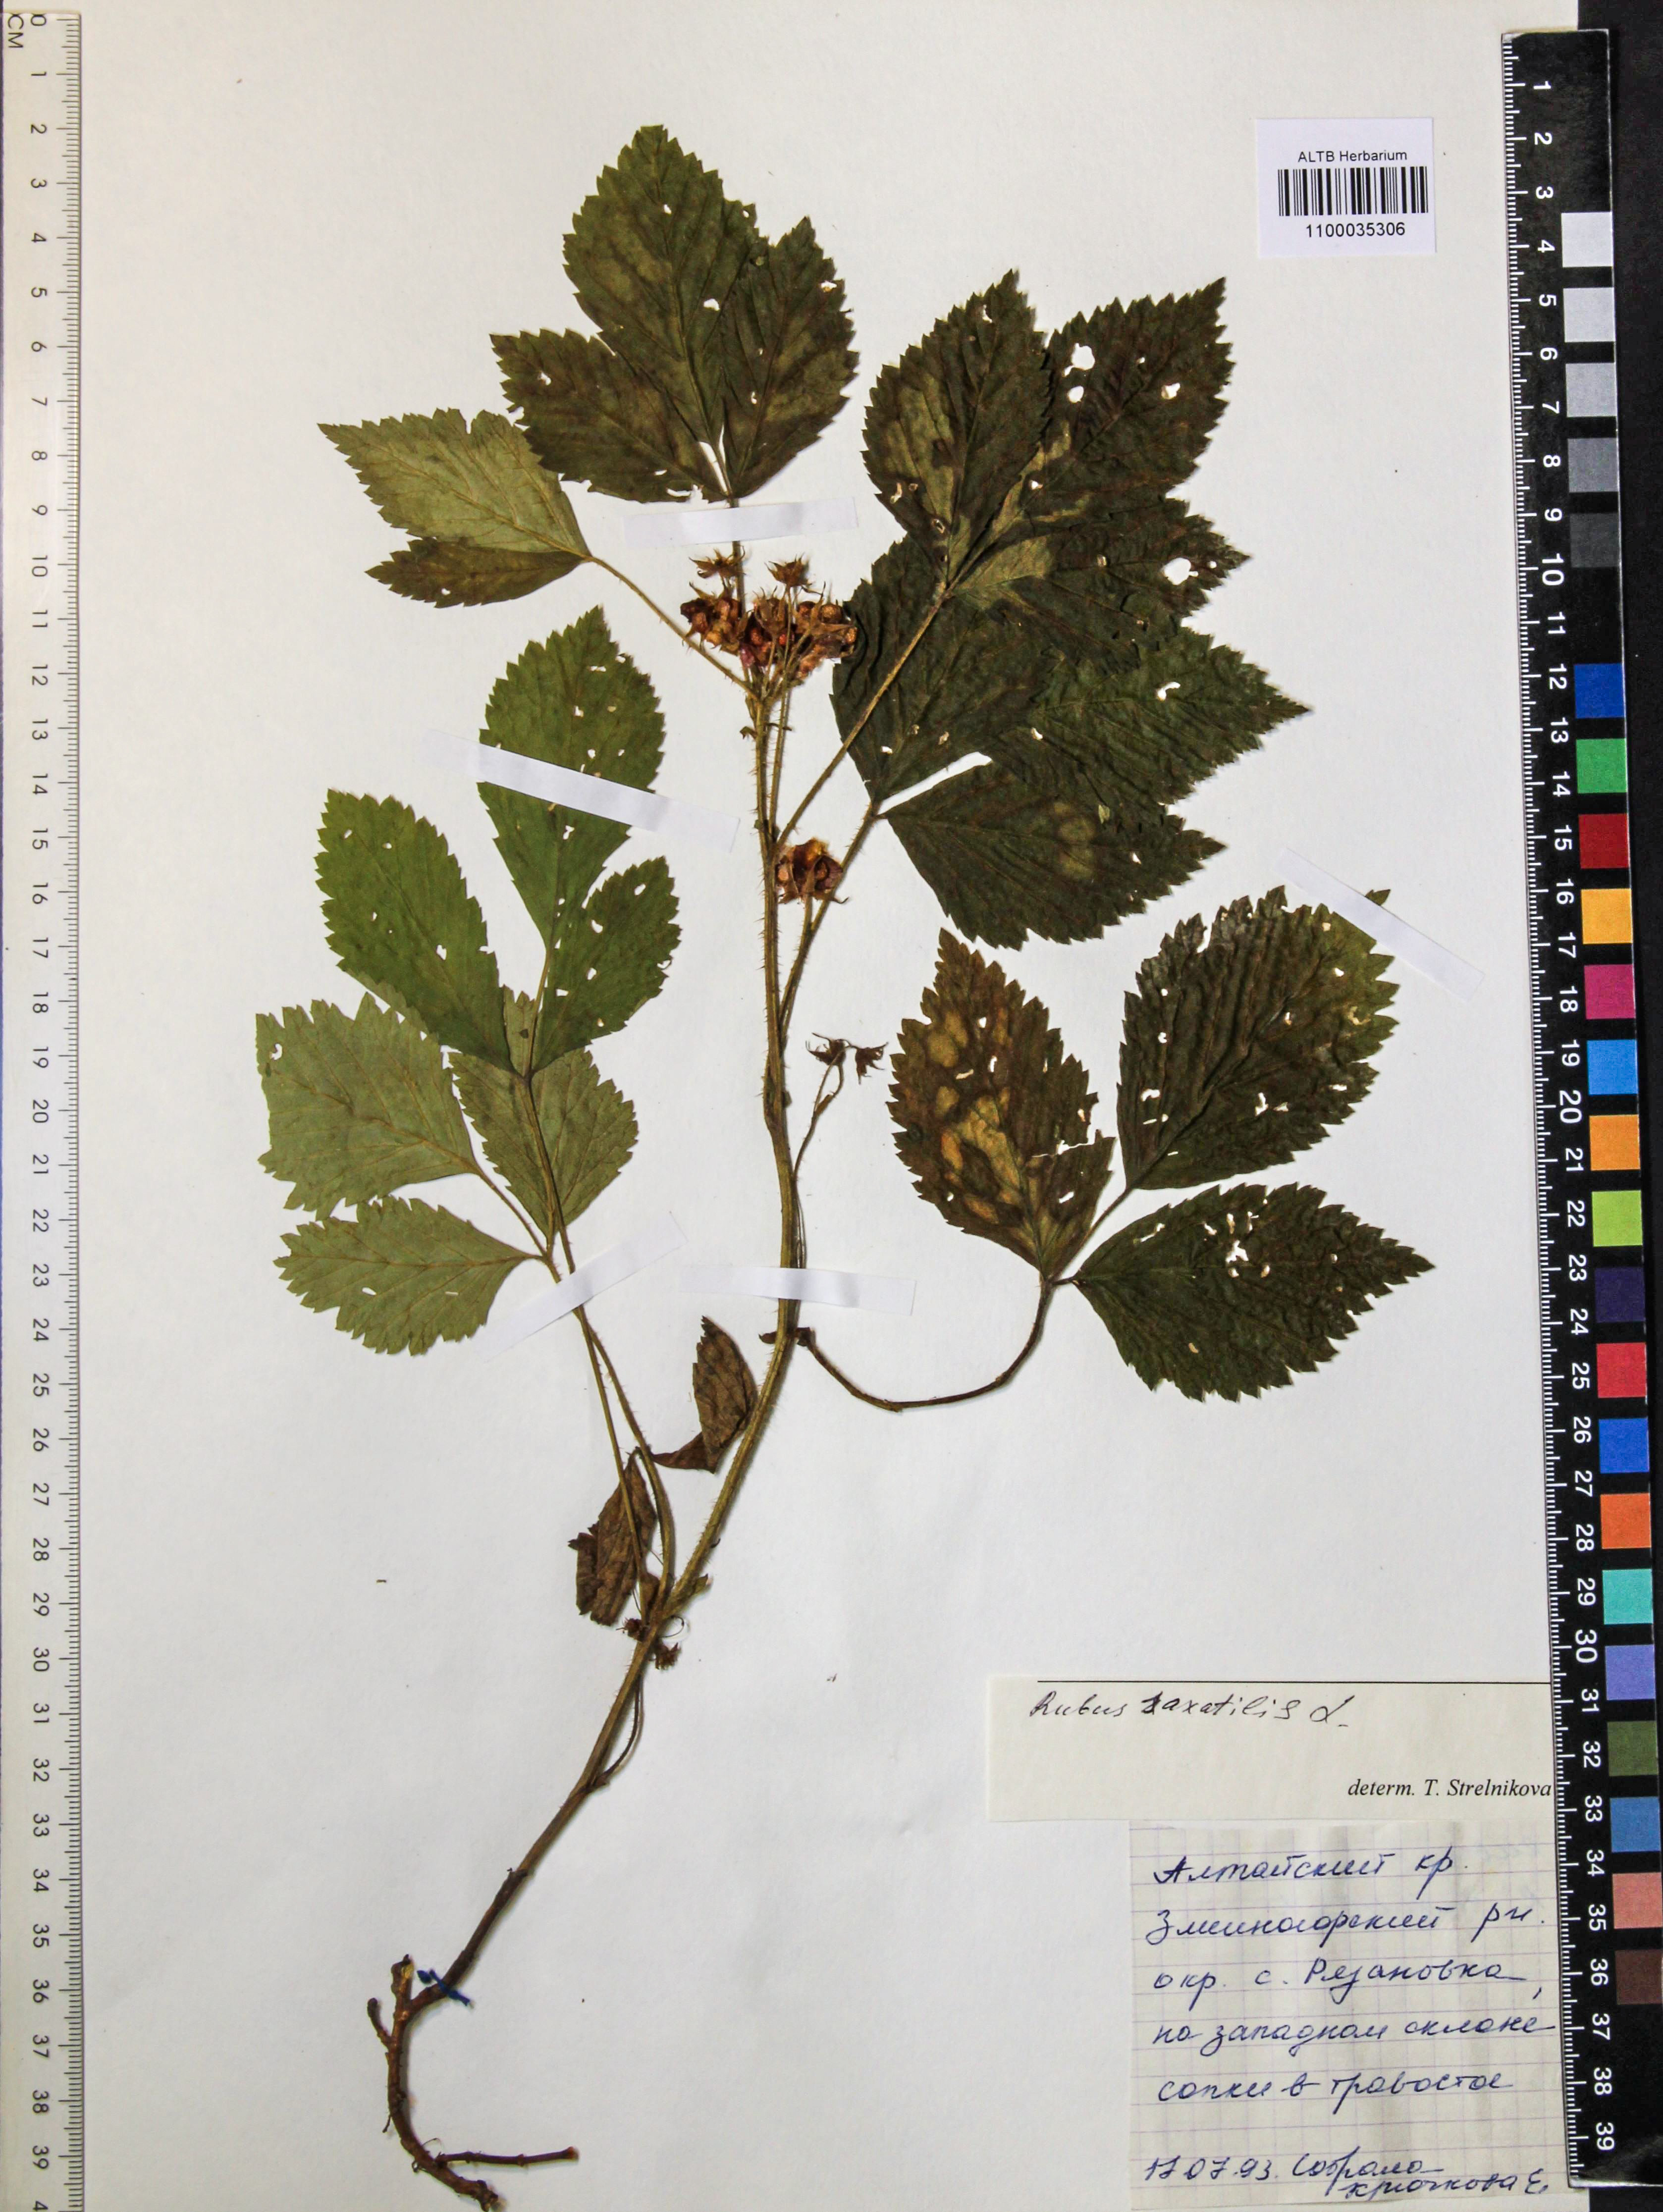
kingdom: Plantae
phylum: Tracheophyta
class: Magnoliopsida
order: Rosales
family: Rosaceae
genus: Rubus
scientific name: Rubus saxatilis
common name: Stone bramble
